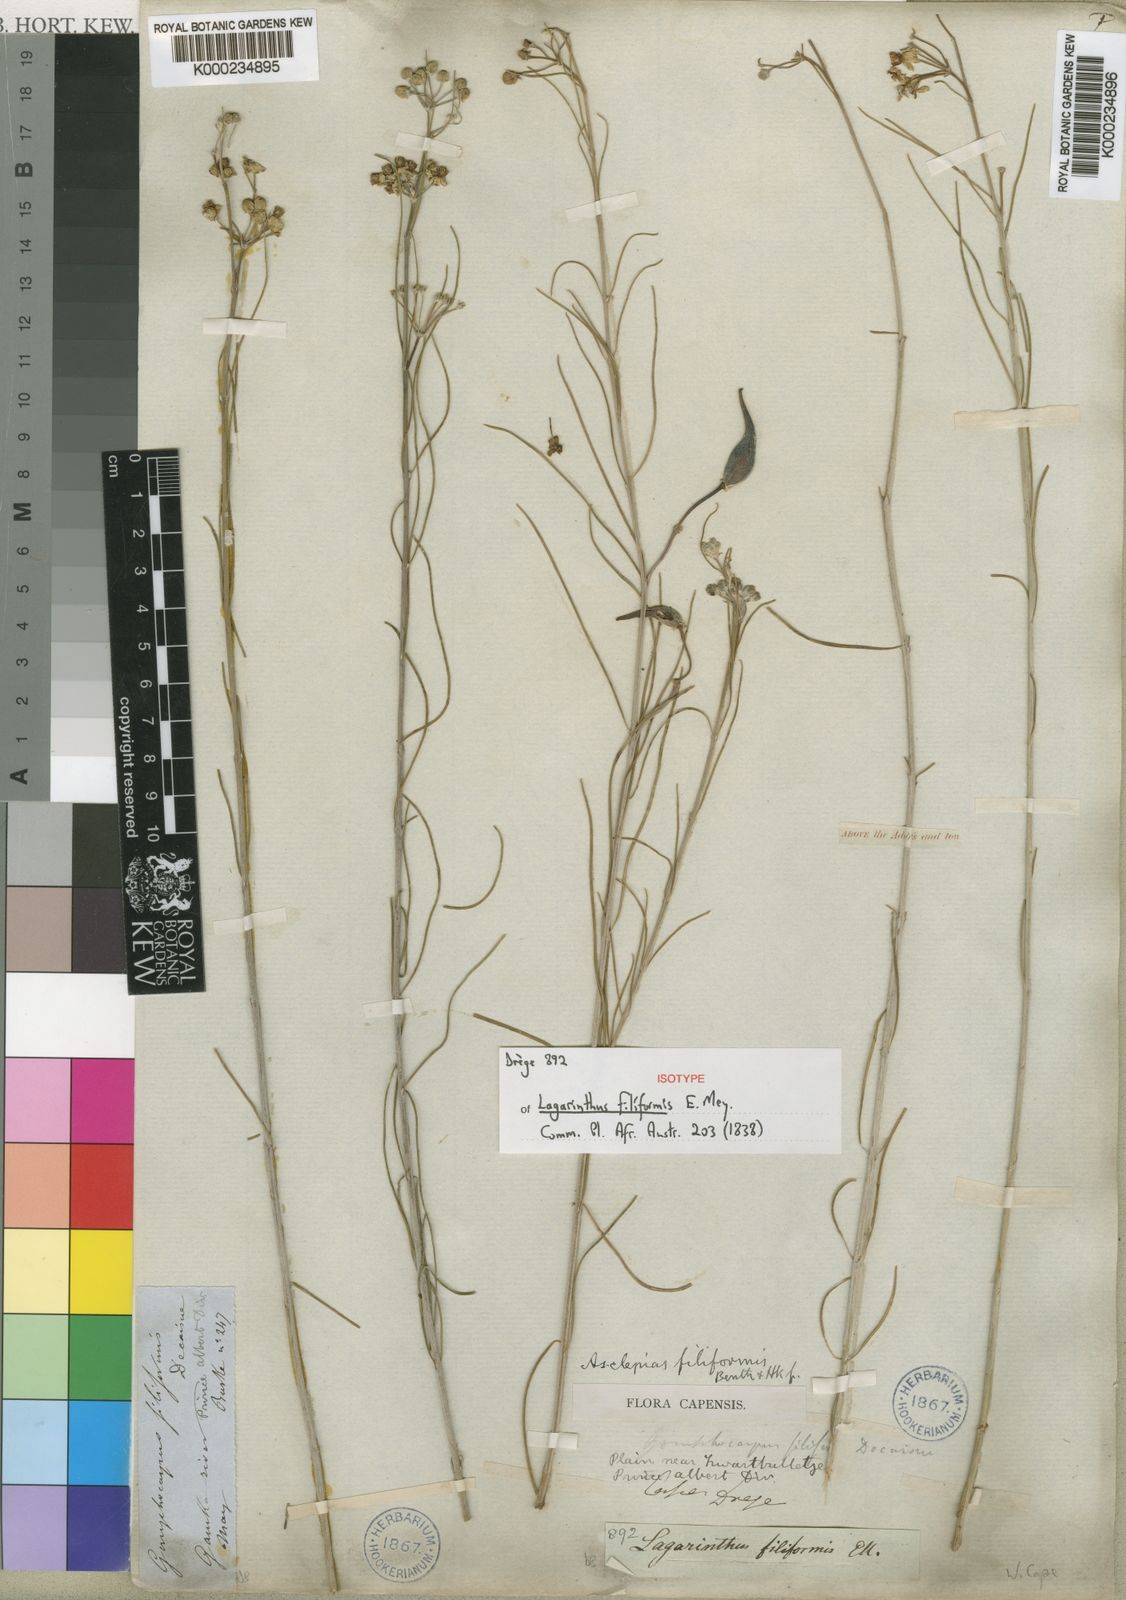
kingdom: Plantae
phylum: Tracheophyta
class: Magnoliopsida
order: Gentianales
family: Apocynaceae
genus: Gomphocarpus
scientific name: Gomphocarpus filiformis
